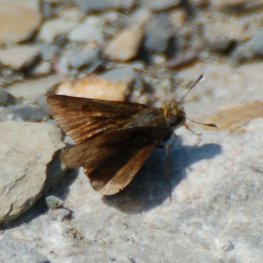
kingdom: Animalia
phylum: Arthropoda
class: Insecta
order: Lepidoptera
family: Hesperiidae
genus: Euphyes
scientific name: Euphyes vestris
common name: Dun Skipper
